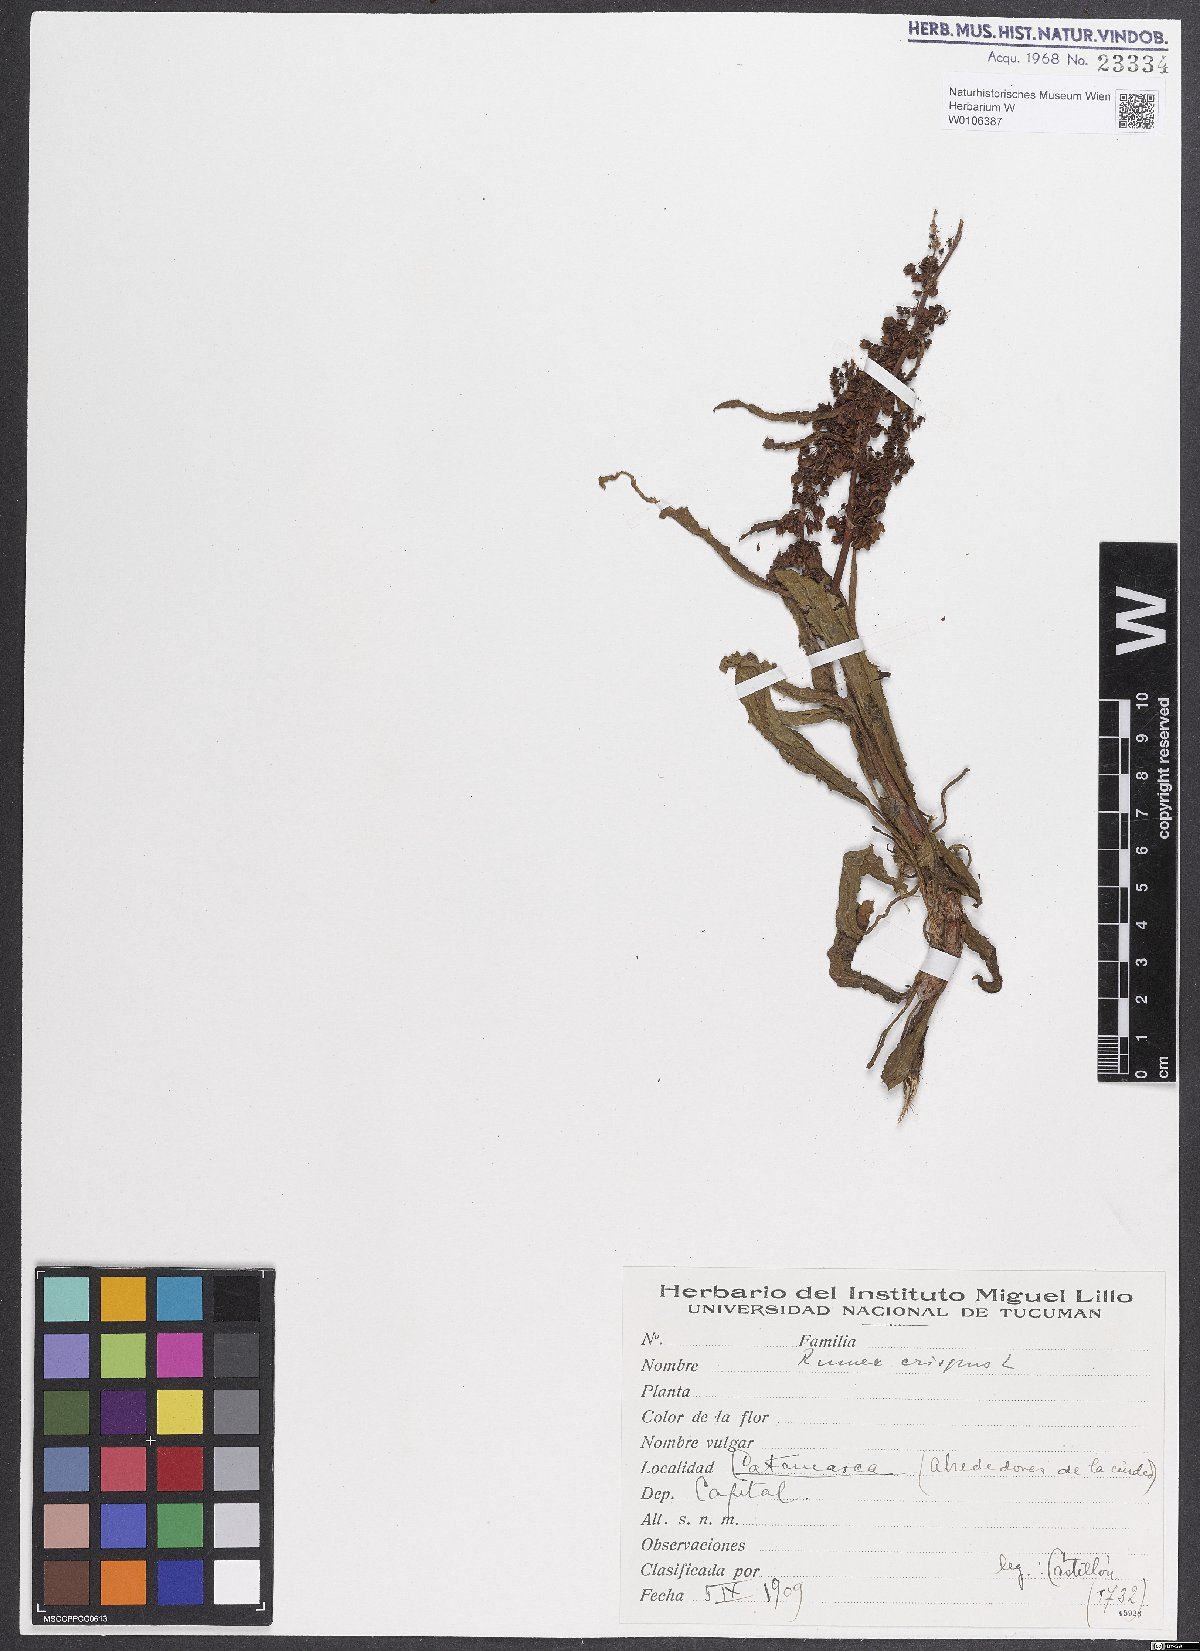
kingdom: Plantae
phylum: Tracheophyta
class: Magnoliopsida
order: Caryophyllales
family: Polygonaceae
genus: Rumex
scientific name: Rumex crispus
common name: Curled dock
